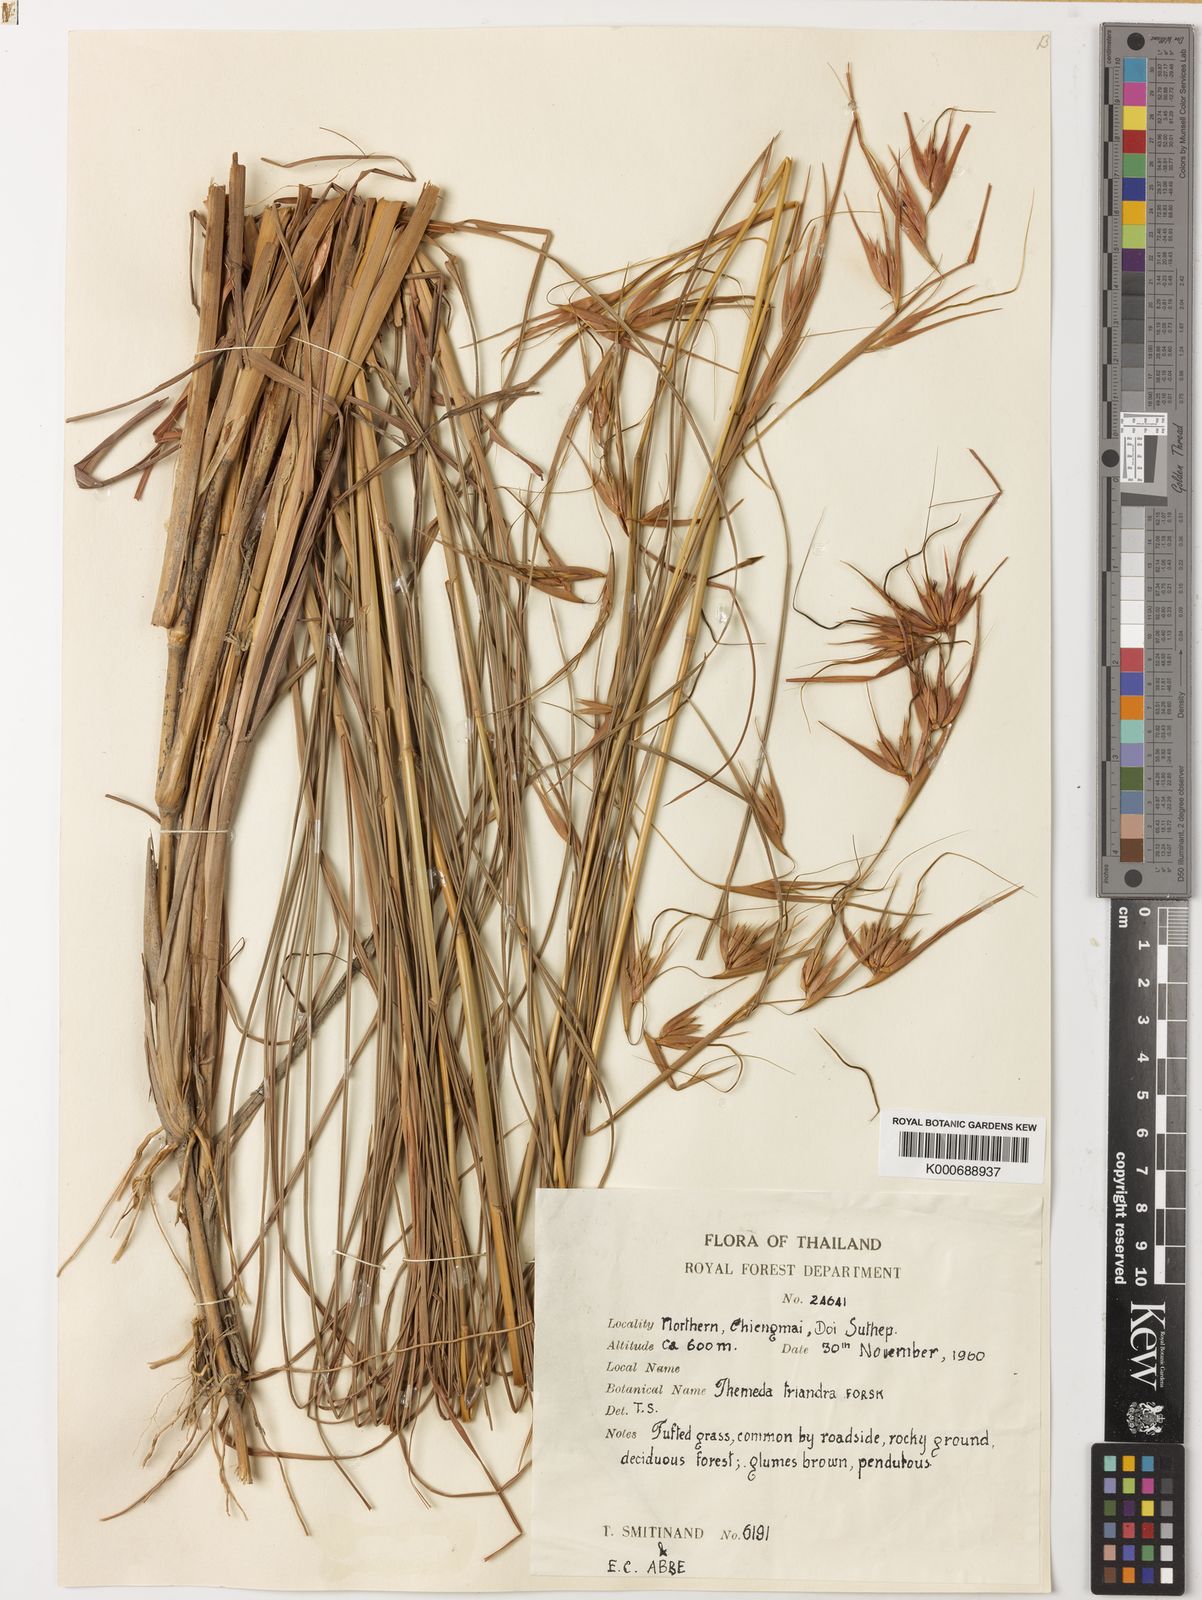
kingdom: Plantae
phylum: Tracheophyta
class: Liliopsida
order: Poales
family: Poaceae
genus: Themeda
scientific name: Themeda triandra
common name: Kangaroo grass
